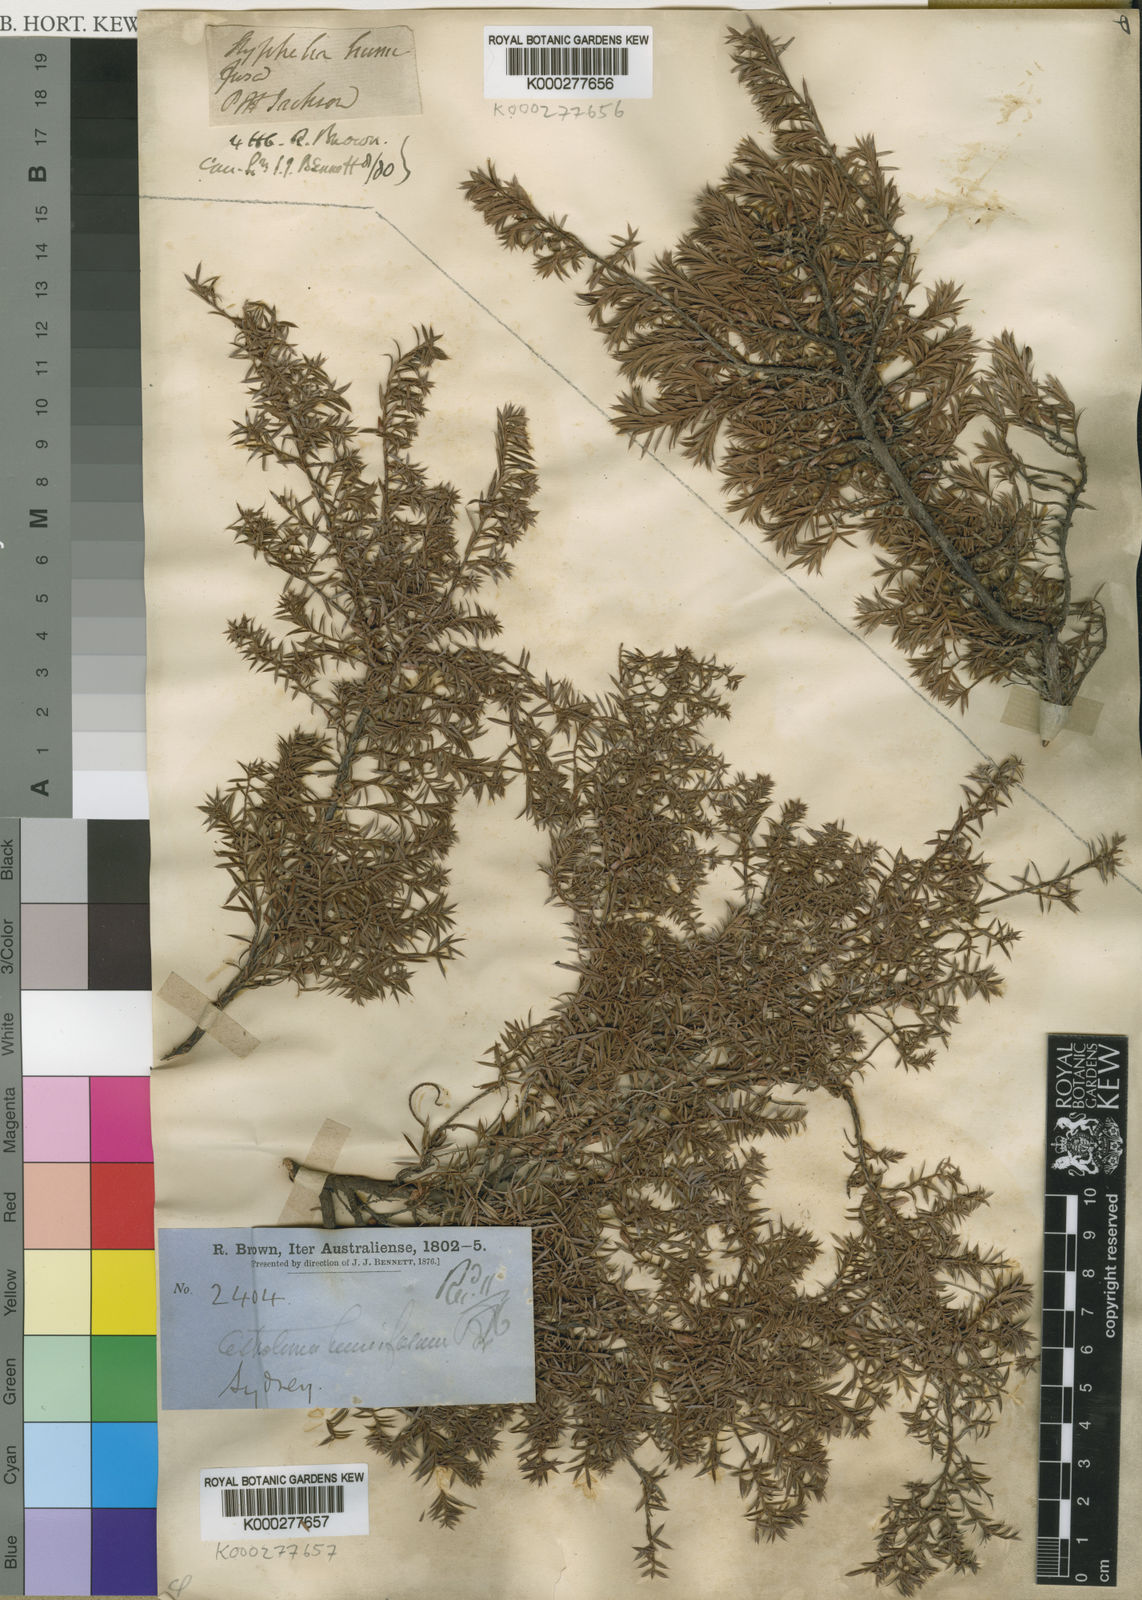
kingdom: Plantae
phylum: Tracheophyta
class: Magnoliopsida
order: Ericales
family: Ericaceae
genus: Styphelia
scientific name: Styphelia humifusa
